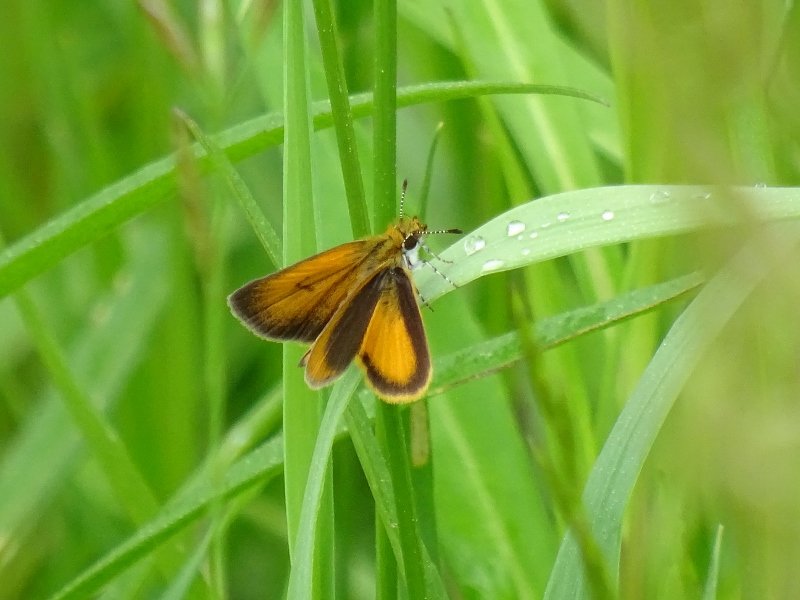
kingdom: Animalia
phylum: Arthropoda
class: Insecta
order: Lepidoptera
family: Hesperiidae
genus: Ancyloxypha
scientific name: Ancyloxypha numitor
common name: Least Skipper
